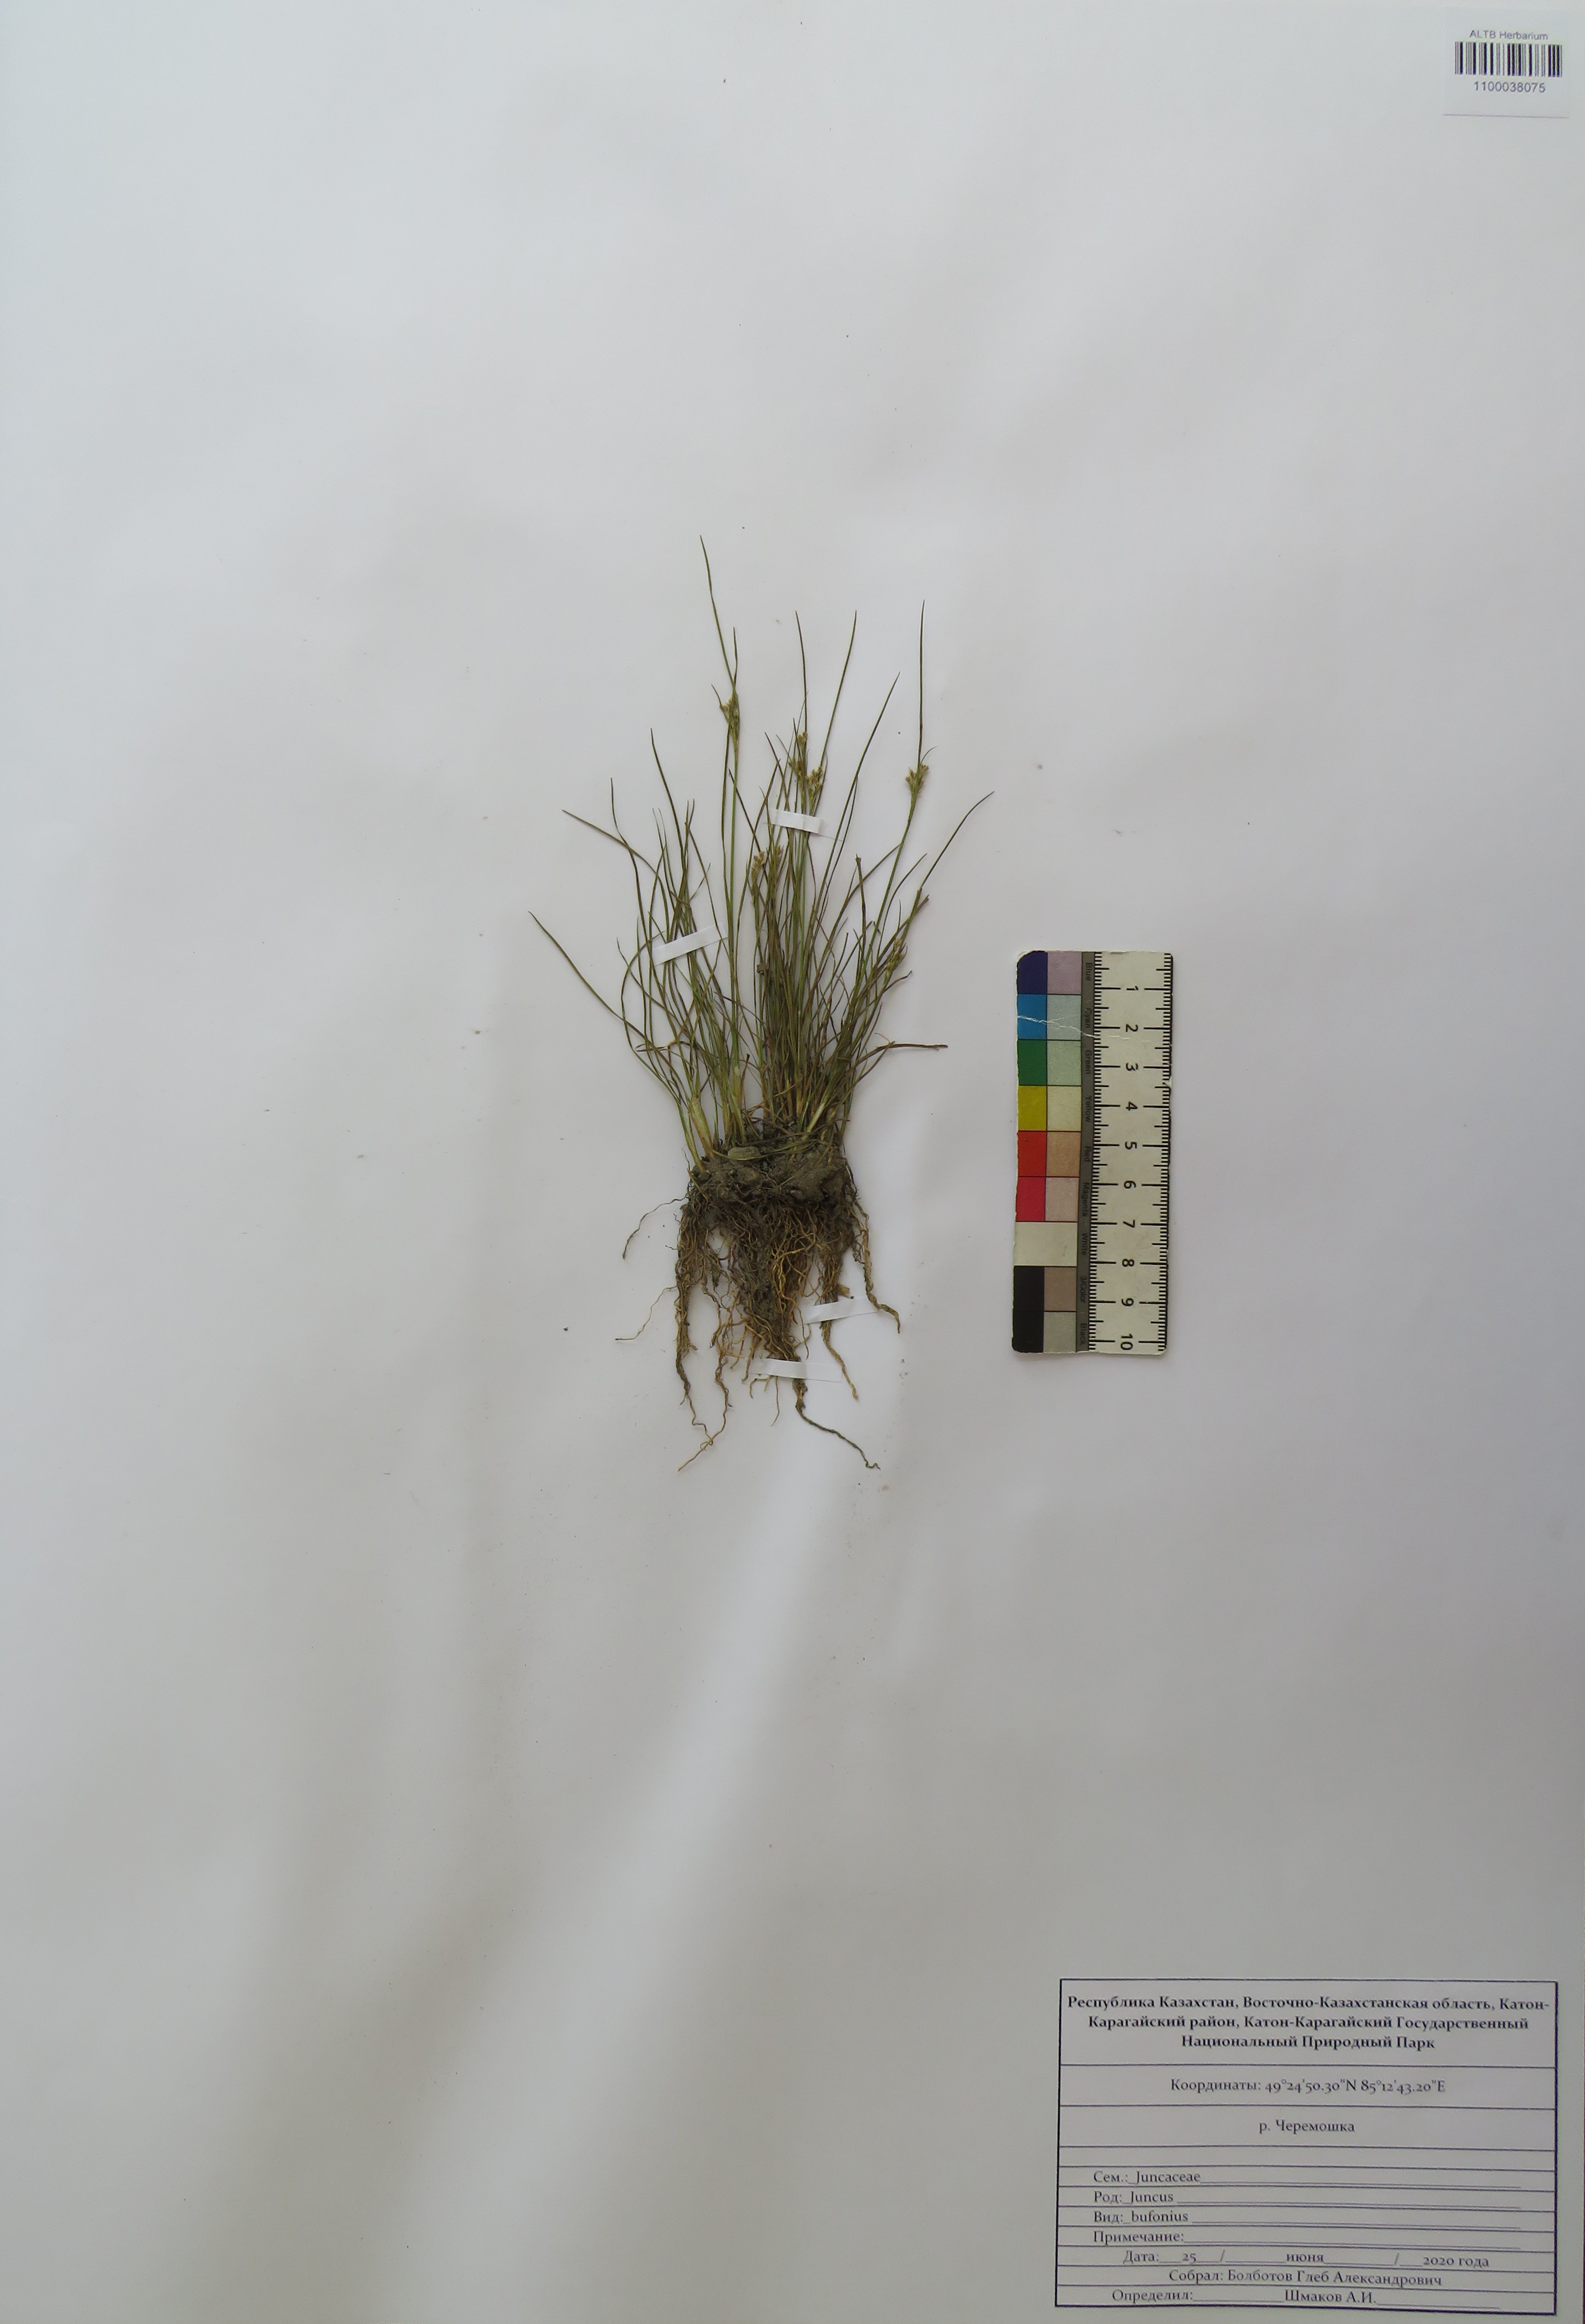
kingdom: Plantae
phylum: Tracheophyta
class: Liliopsida
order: Poales
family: Juncaceae
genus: Juncus
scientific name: Juncus bufonius
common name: Toad rush
